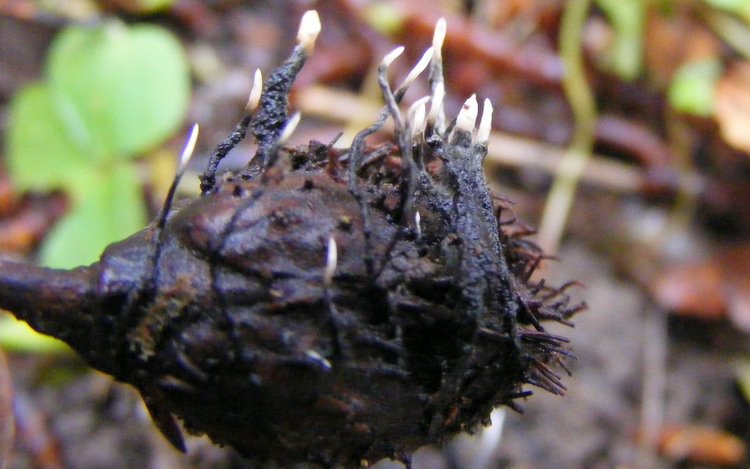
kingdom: Fungi
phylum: Ascomycota
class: Sordariomycetes
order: Xylariales
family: Xylariaceae
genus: Xylaria
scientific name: Xylaria carpophila
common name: bogskål-stødsvamp
